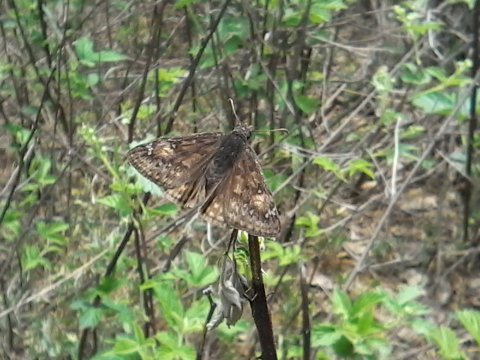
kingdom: Animalia
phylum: Arthropoda
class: Insecta
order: Lepidoptera
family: Hesperiidae
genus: Gesta
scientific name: Gesta
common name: Juvenal's Duskywing
